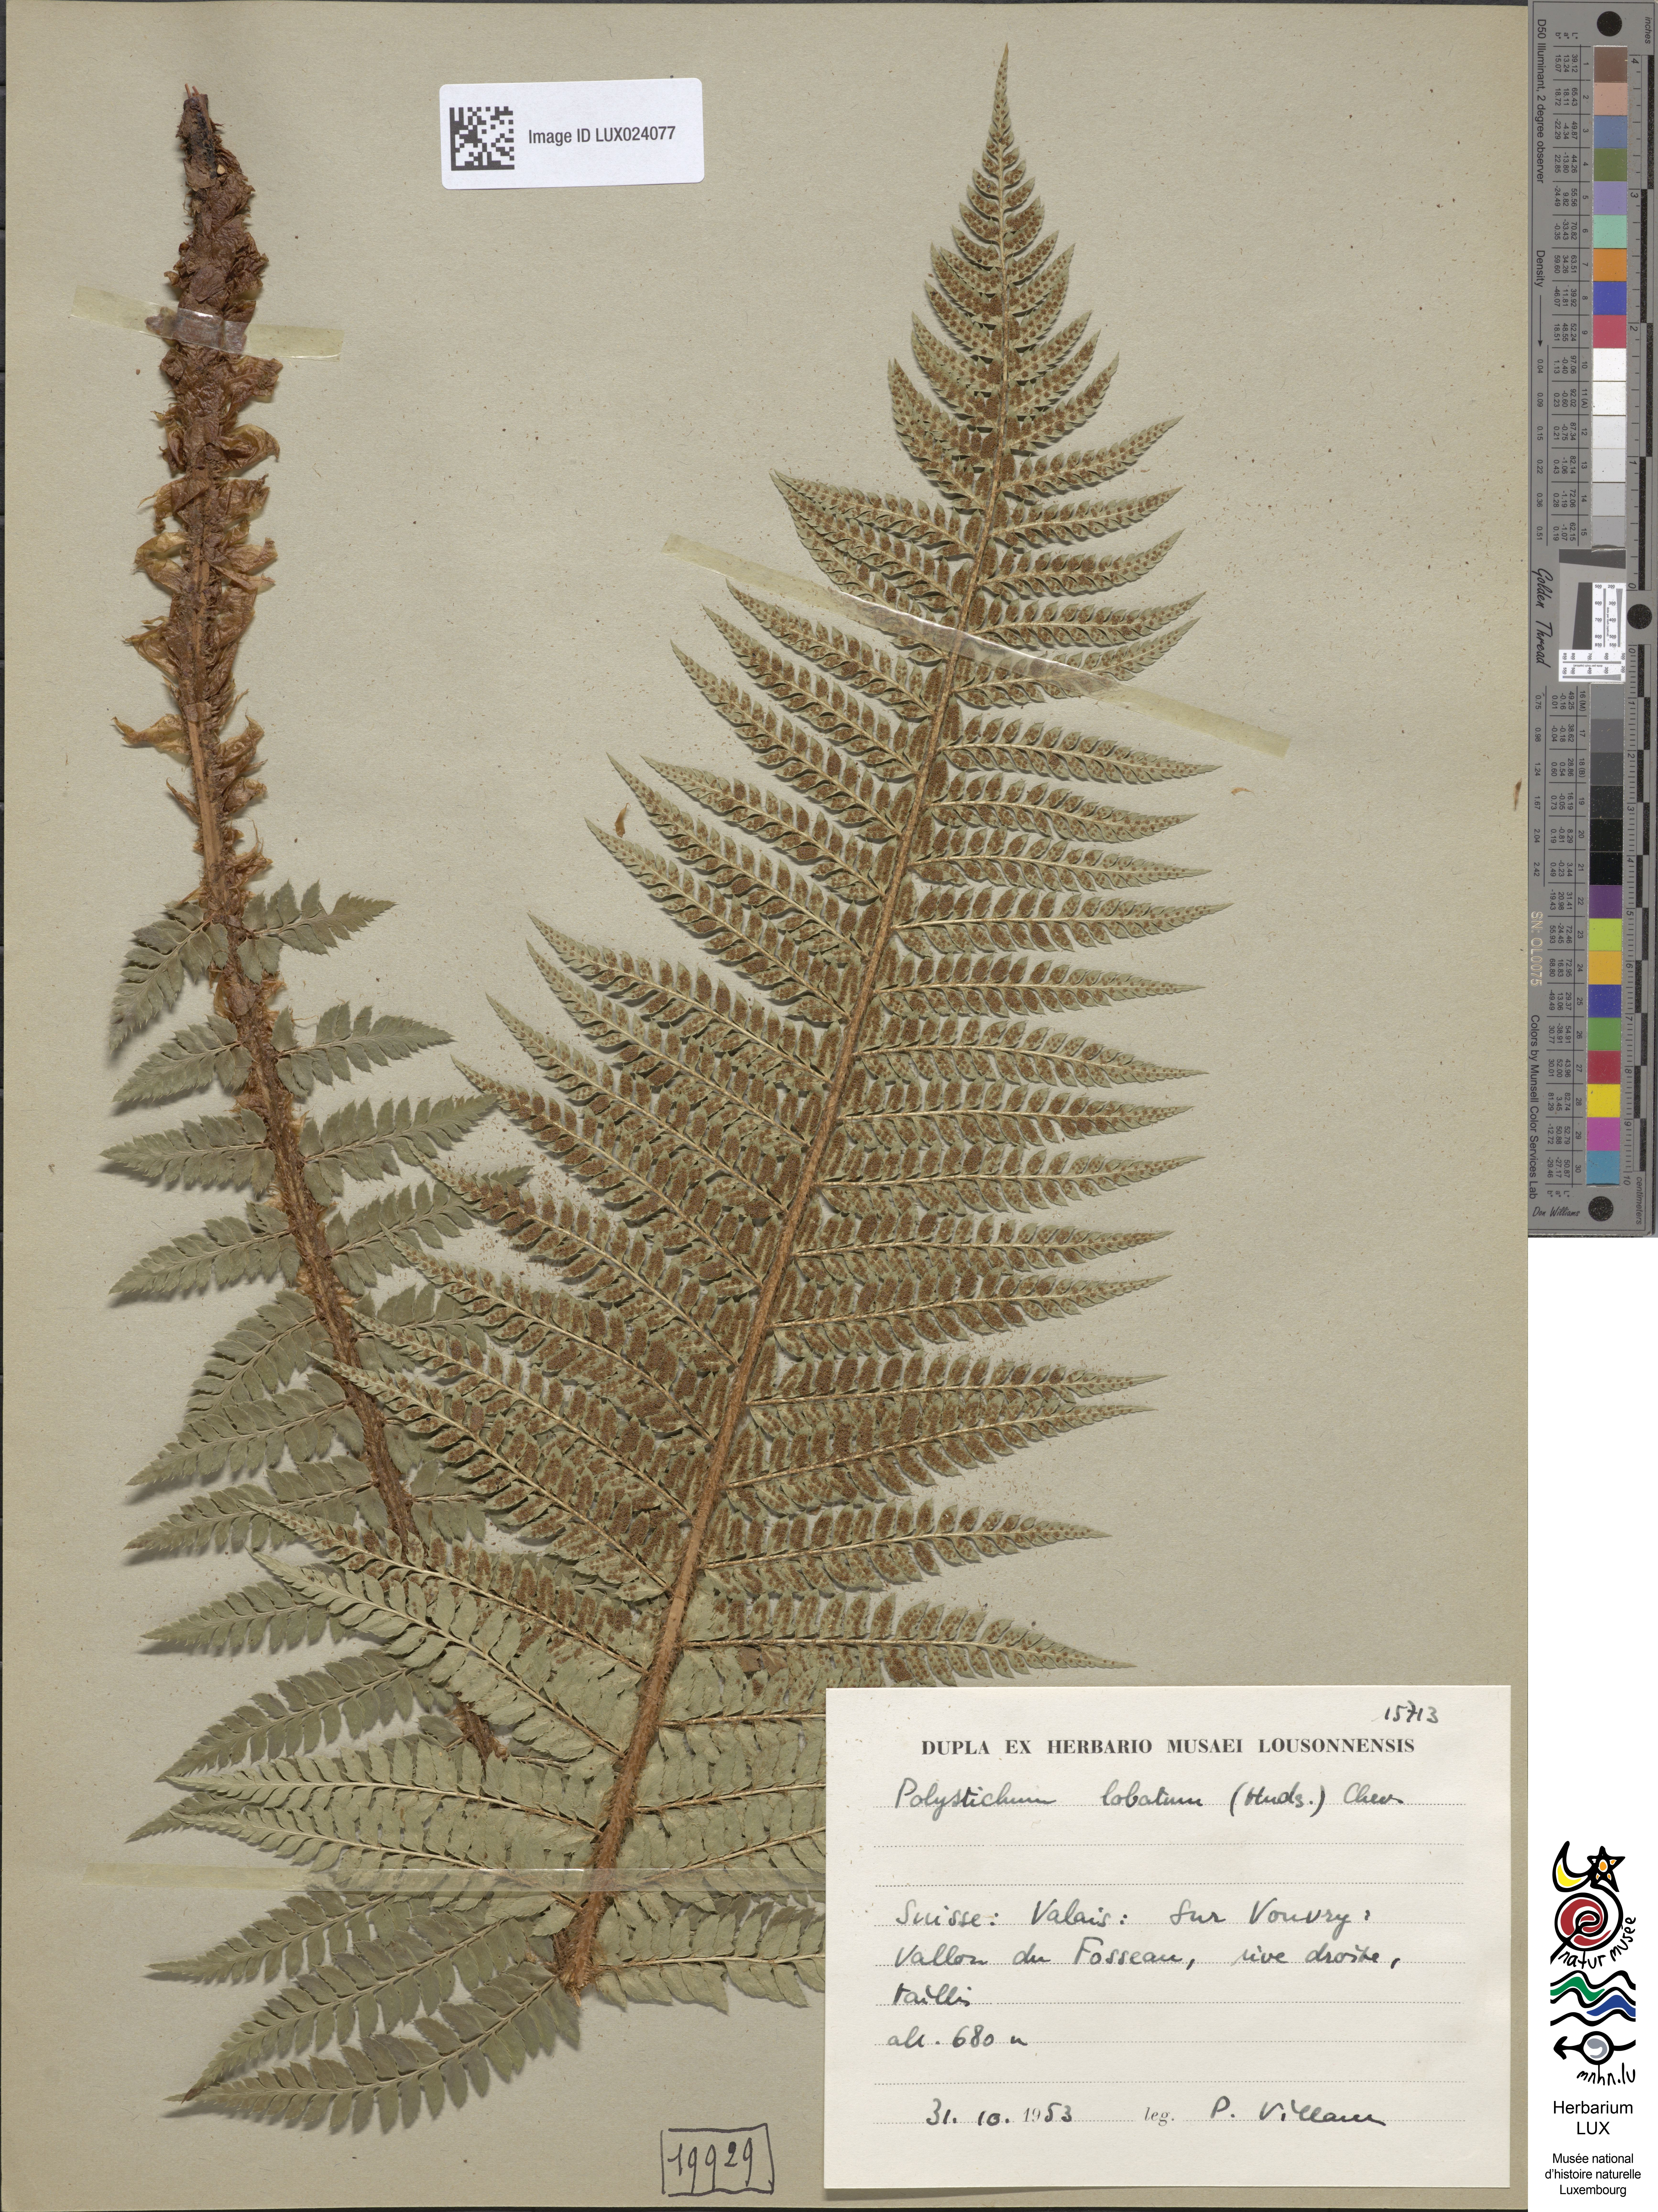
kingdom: Plantae
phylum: Tracheophyta
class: Polypodiopsida
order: Polypodiales
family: Dryopteridaceae
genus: Polystichum
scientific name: Polystichum aculeatum
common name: Hard shield-fern
